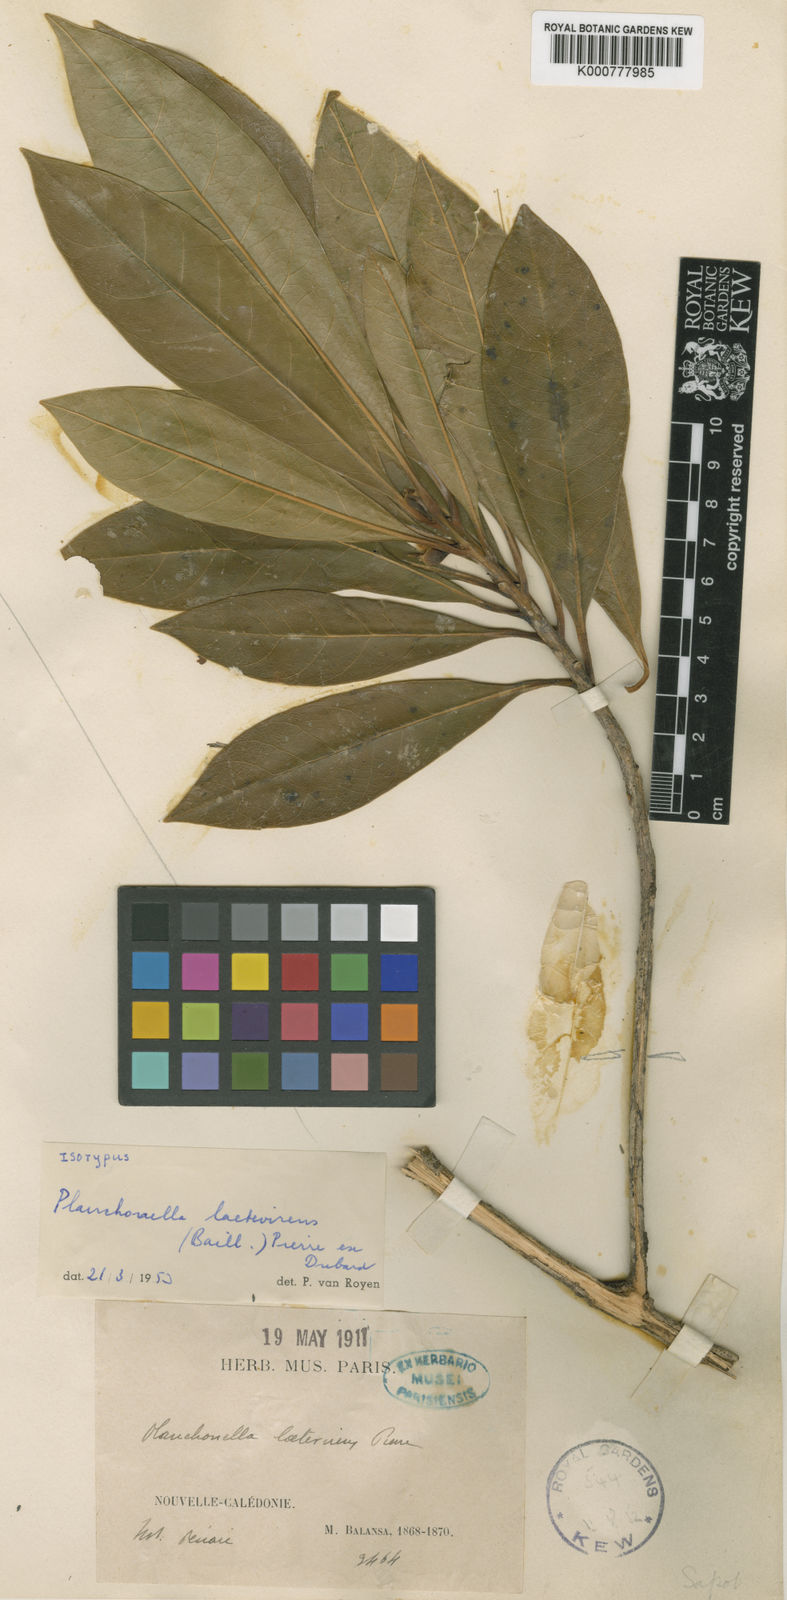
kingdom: Plantae
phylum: Tracheophyta
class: Magnoliopsida
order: Ericales
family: Sapotaceae
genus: Planchonella
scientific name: Planchonella laetevirens
